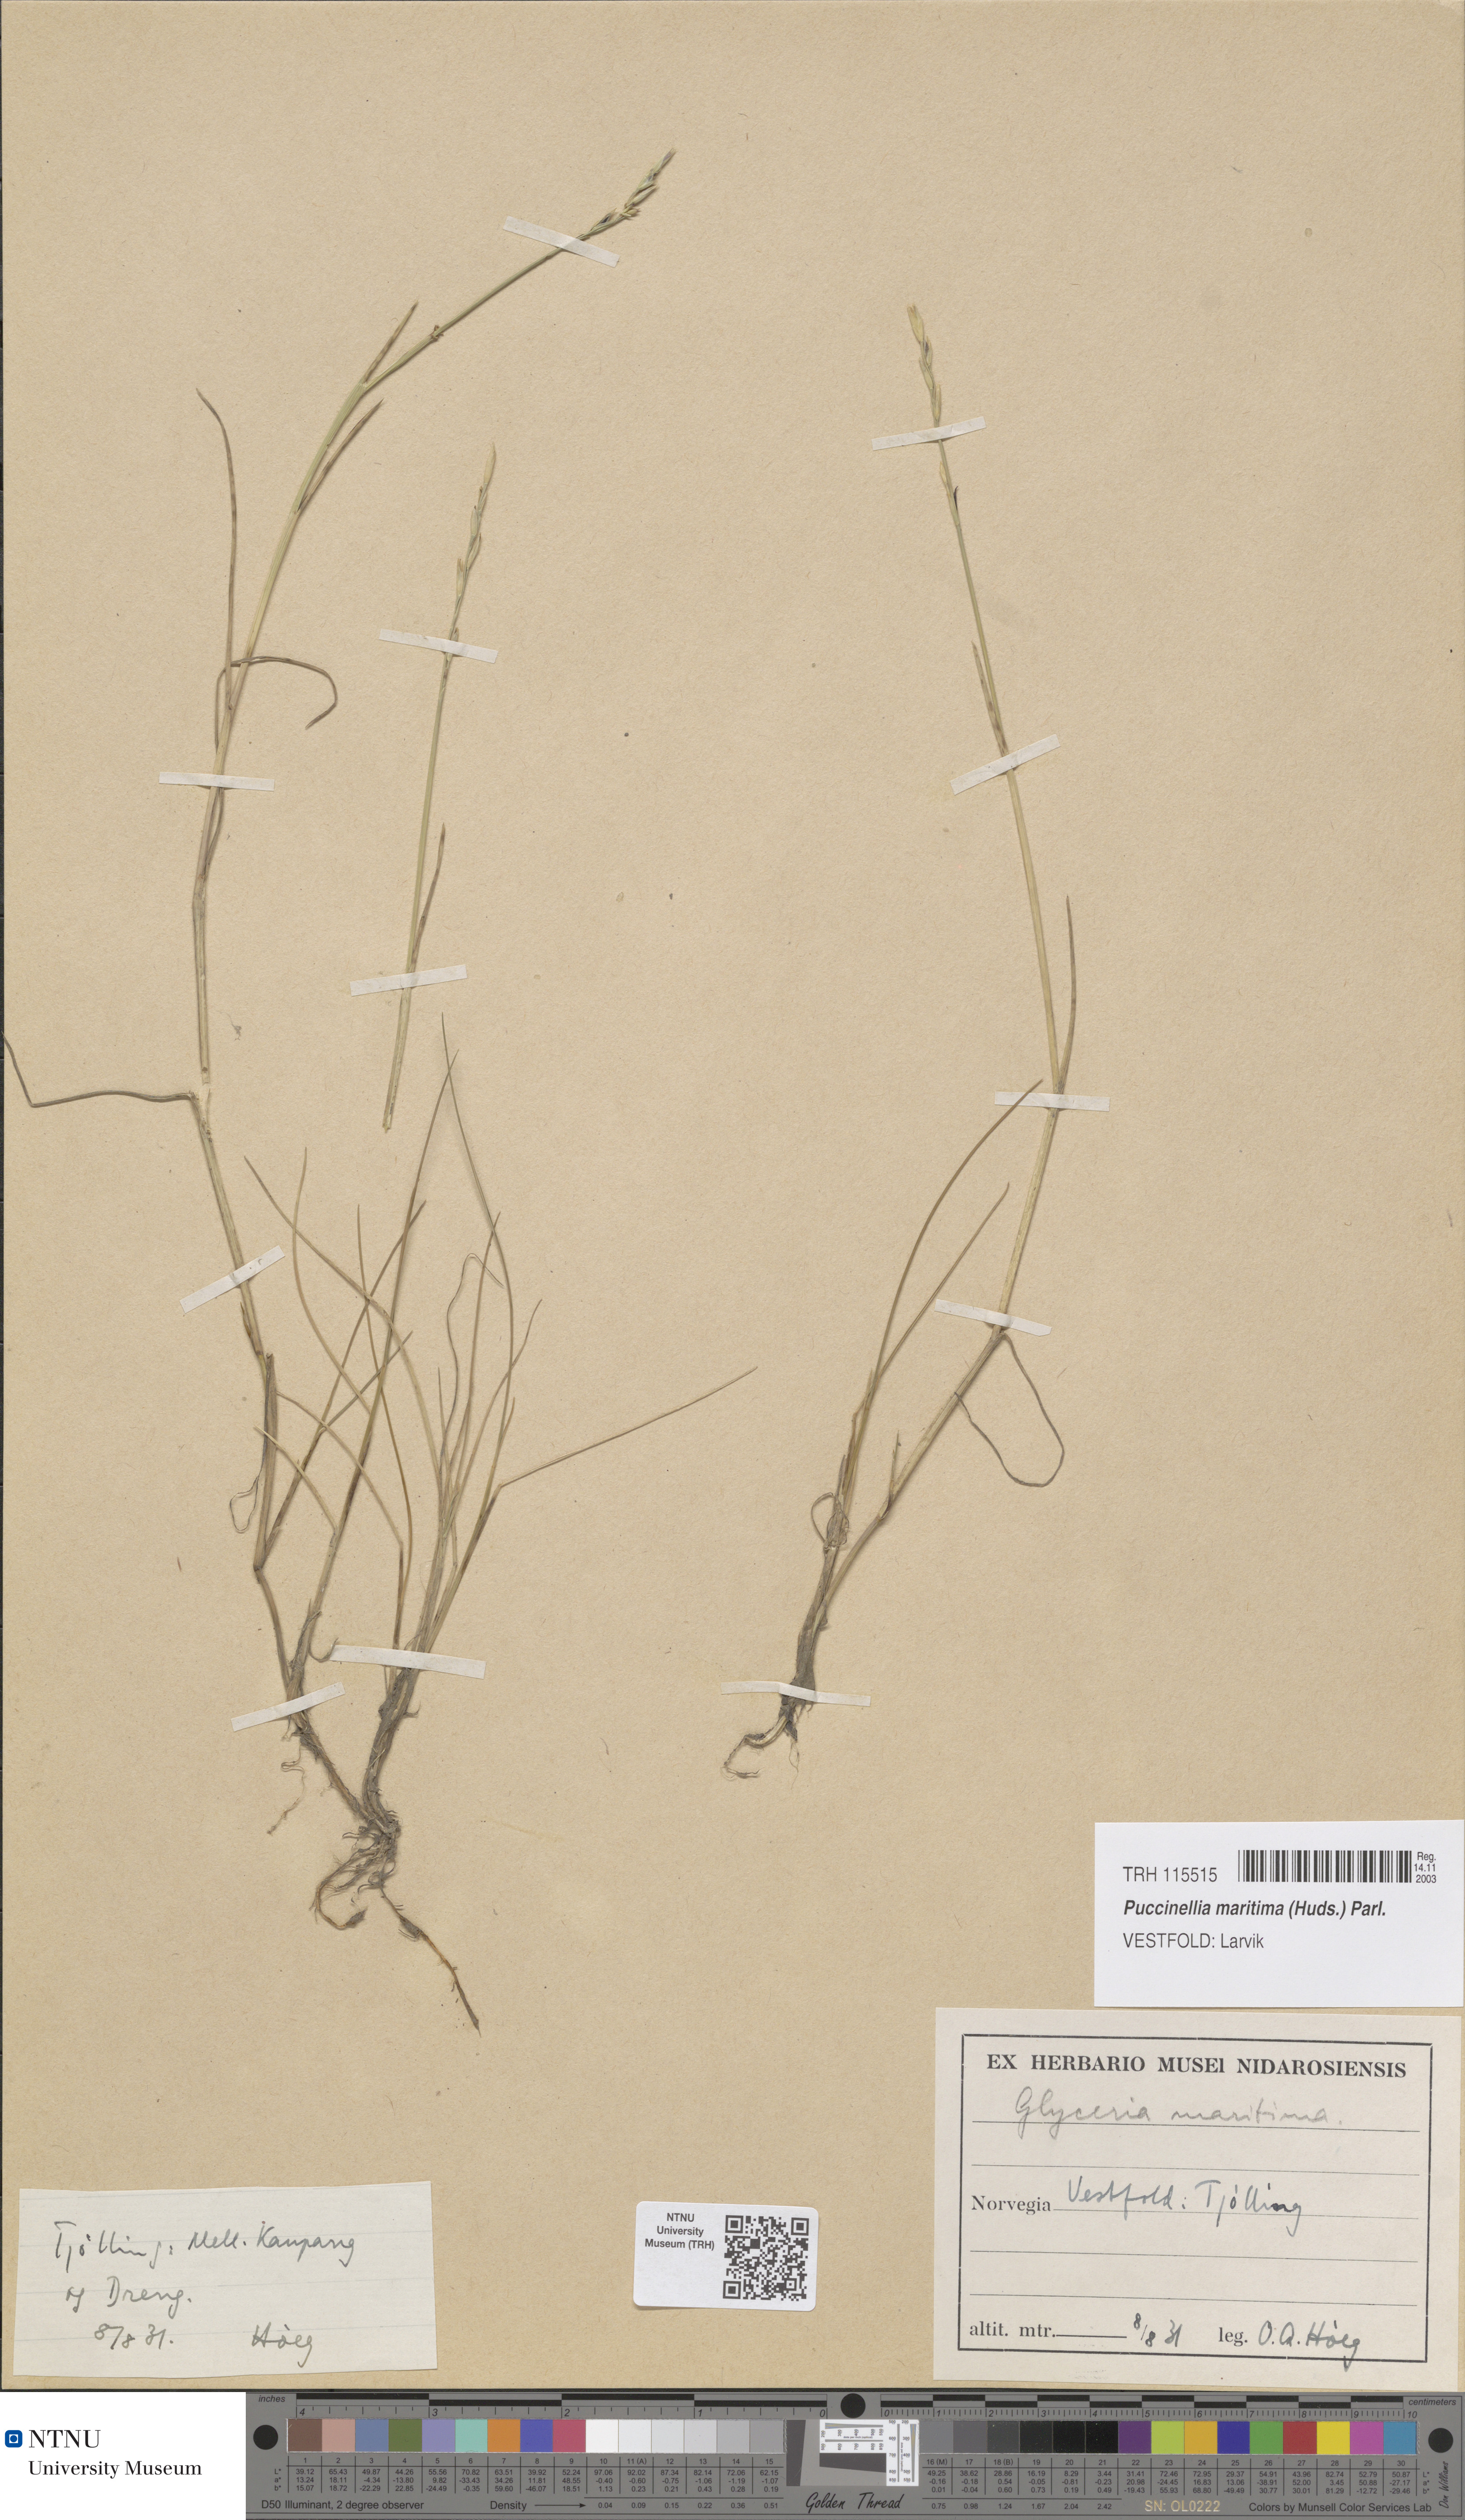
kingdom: Plantae
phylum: Tracheophyta
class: Liliopsida
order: Poales
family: Poaceae
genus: Puccinellia
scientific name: Puccinellia maritima
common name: Common saltmarsh grass
